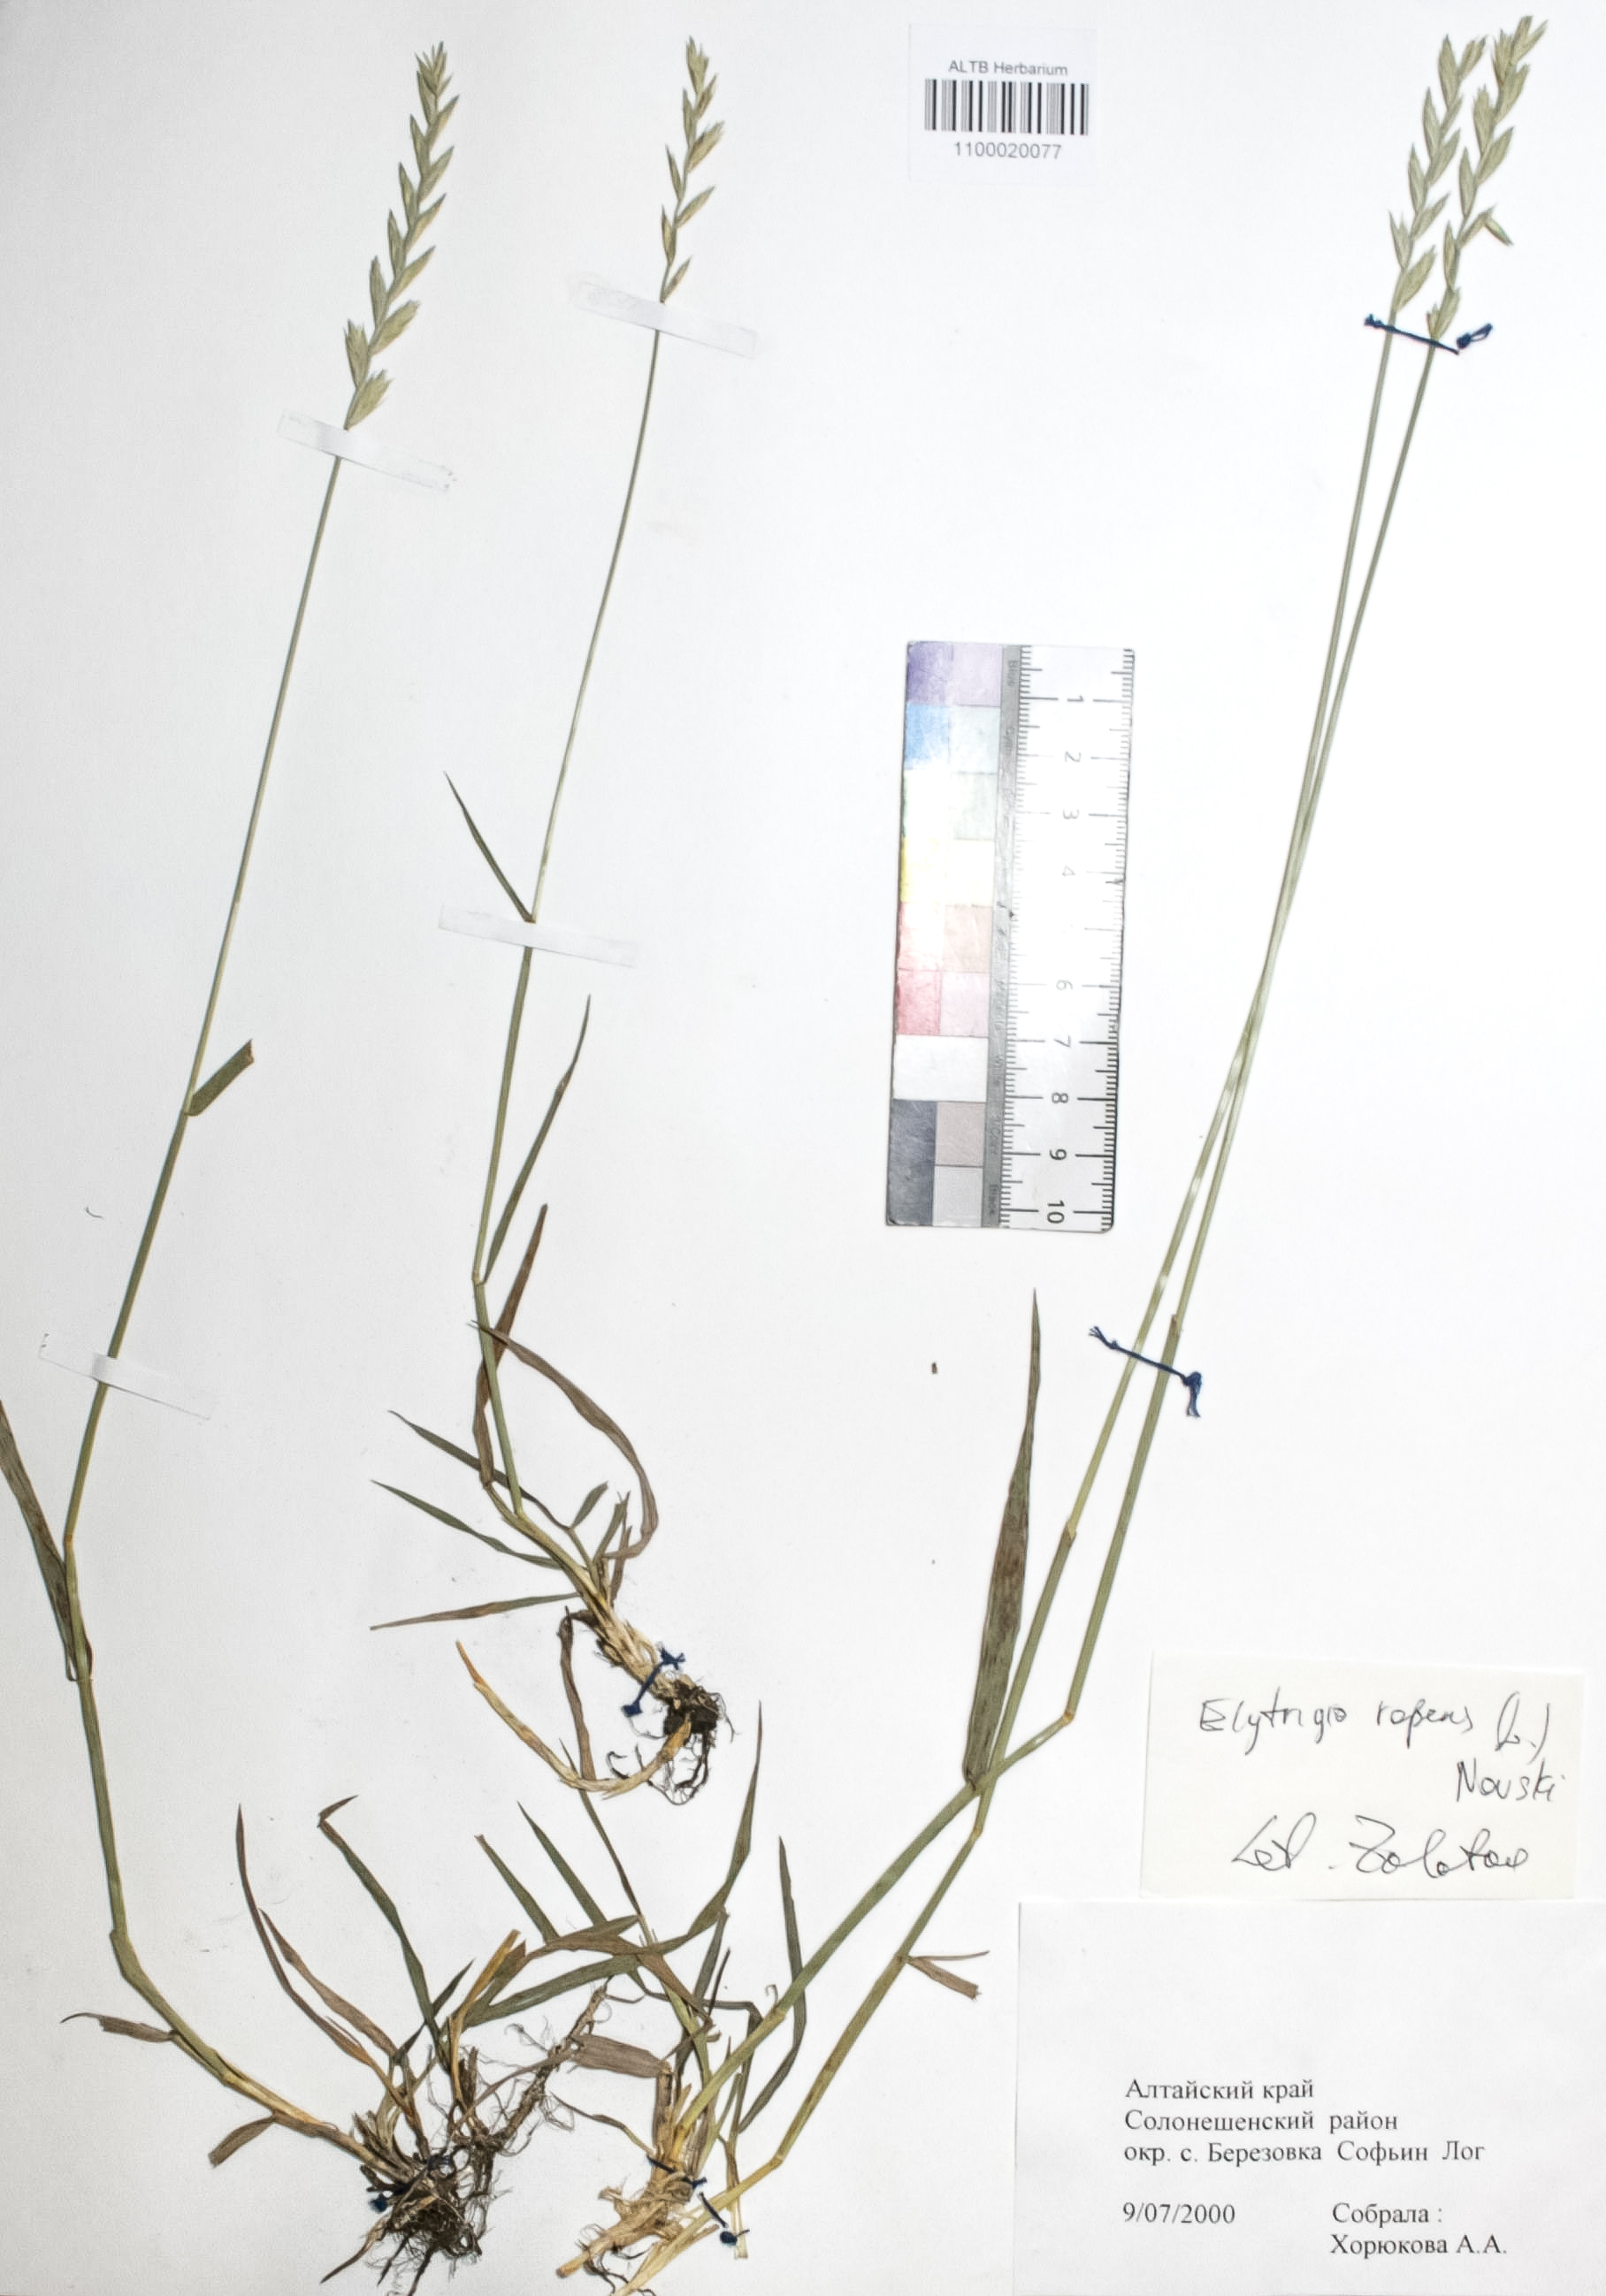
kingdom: Plantae
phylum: Tracheophyta
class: Liliopsida
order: Poales
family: Poaceae
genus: Elymus
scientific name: Elymus repens
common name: Quackgrass
